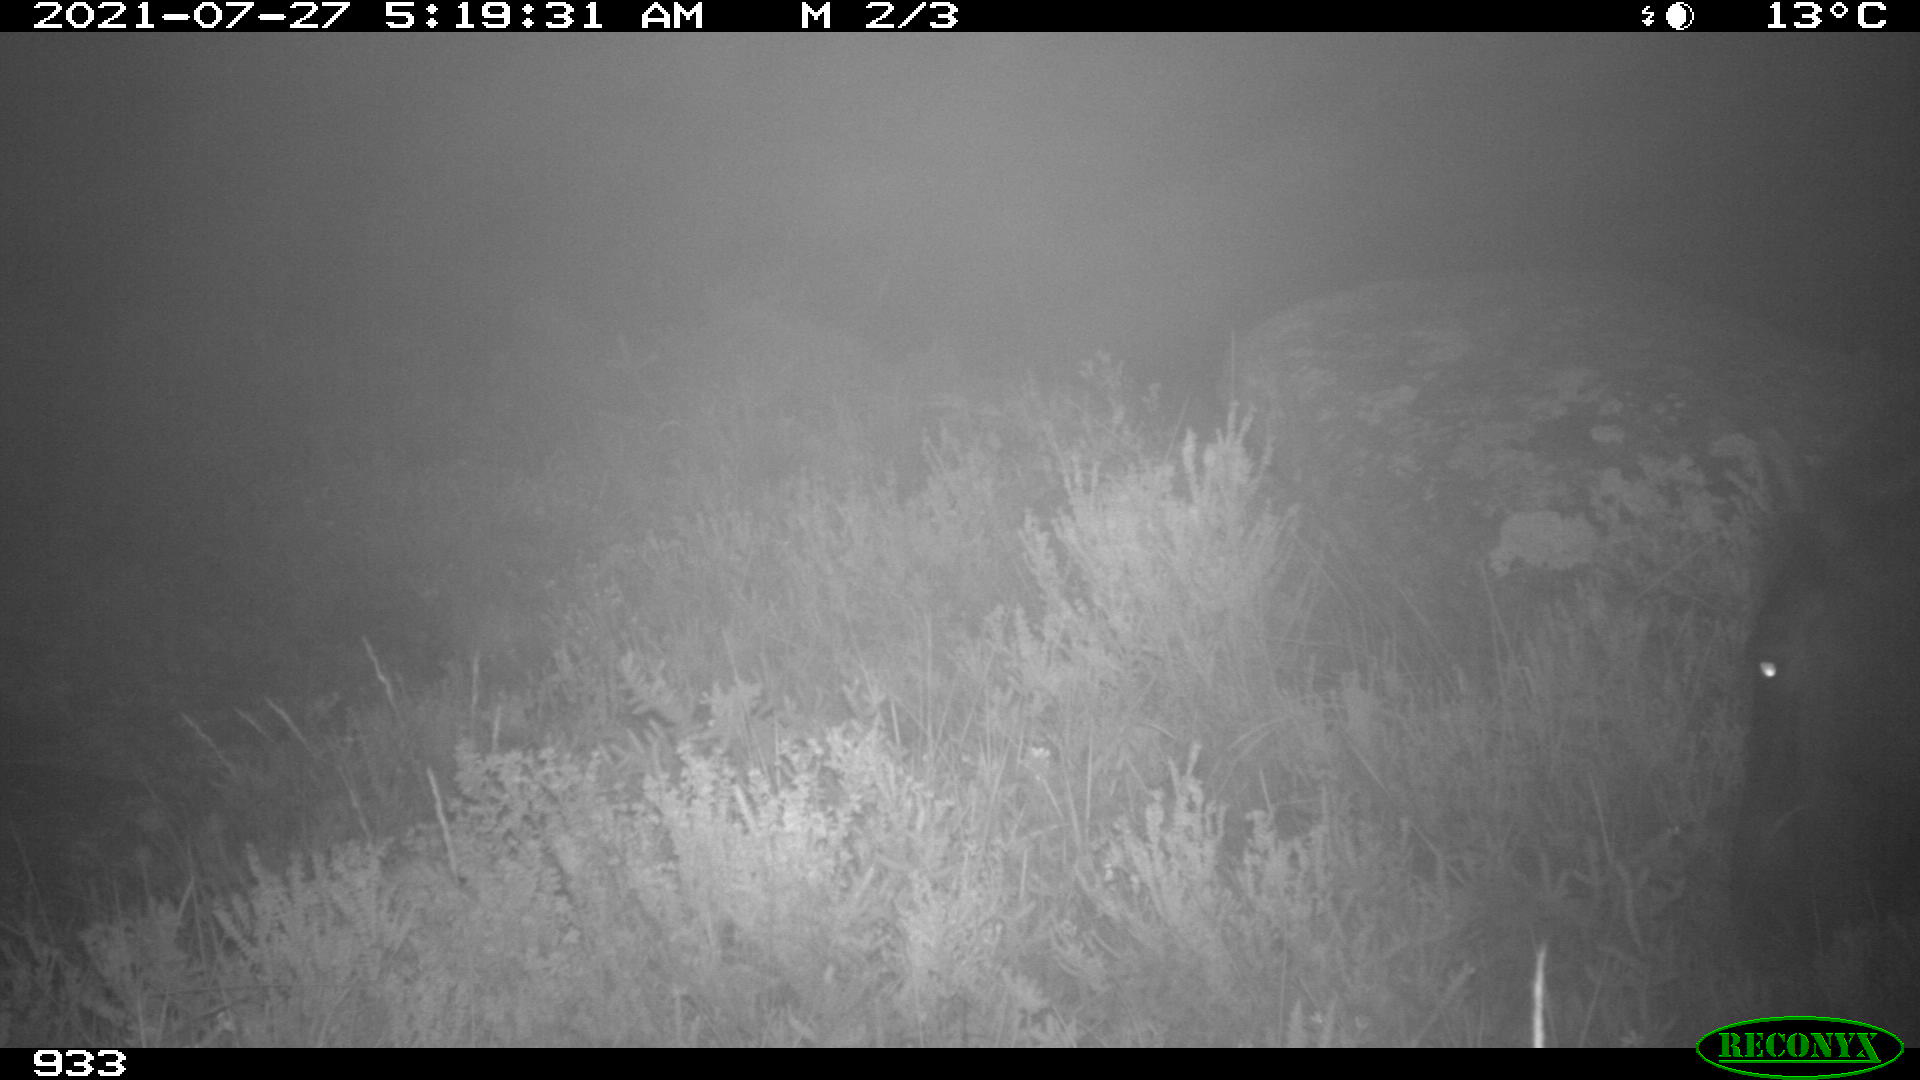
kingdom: Animalia
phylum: Chordata
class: Mammalia
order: Perissodactyla
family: Equidae
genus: Equus
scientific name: Equus caballus
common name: Horse
